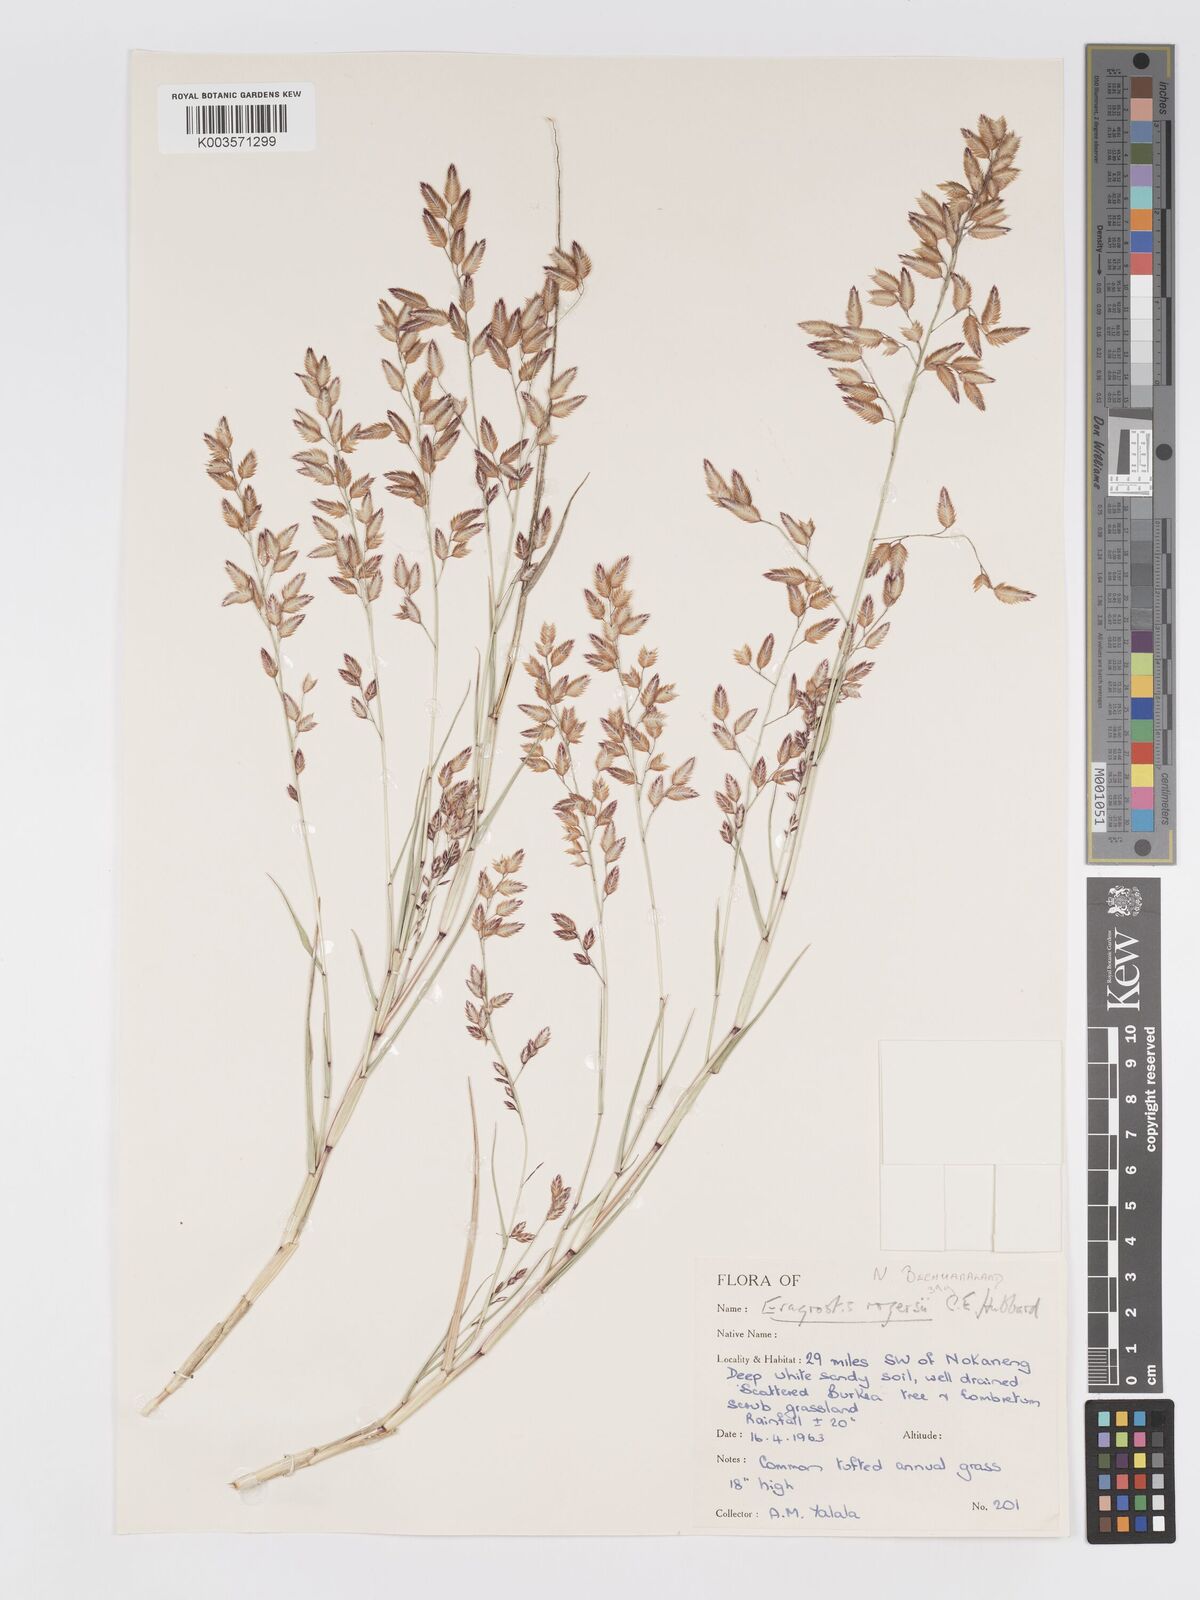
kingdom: Plantae
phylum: Tracheophyta
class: Liliopsida
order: Poales
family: Poaceae
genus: Eragrostis
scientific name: Eragrostis rogersii
